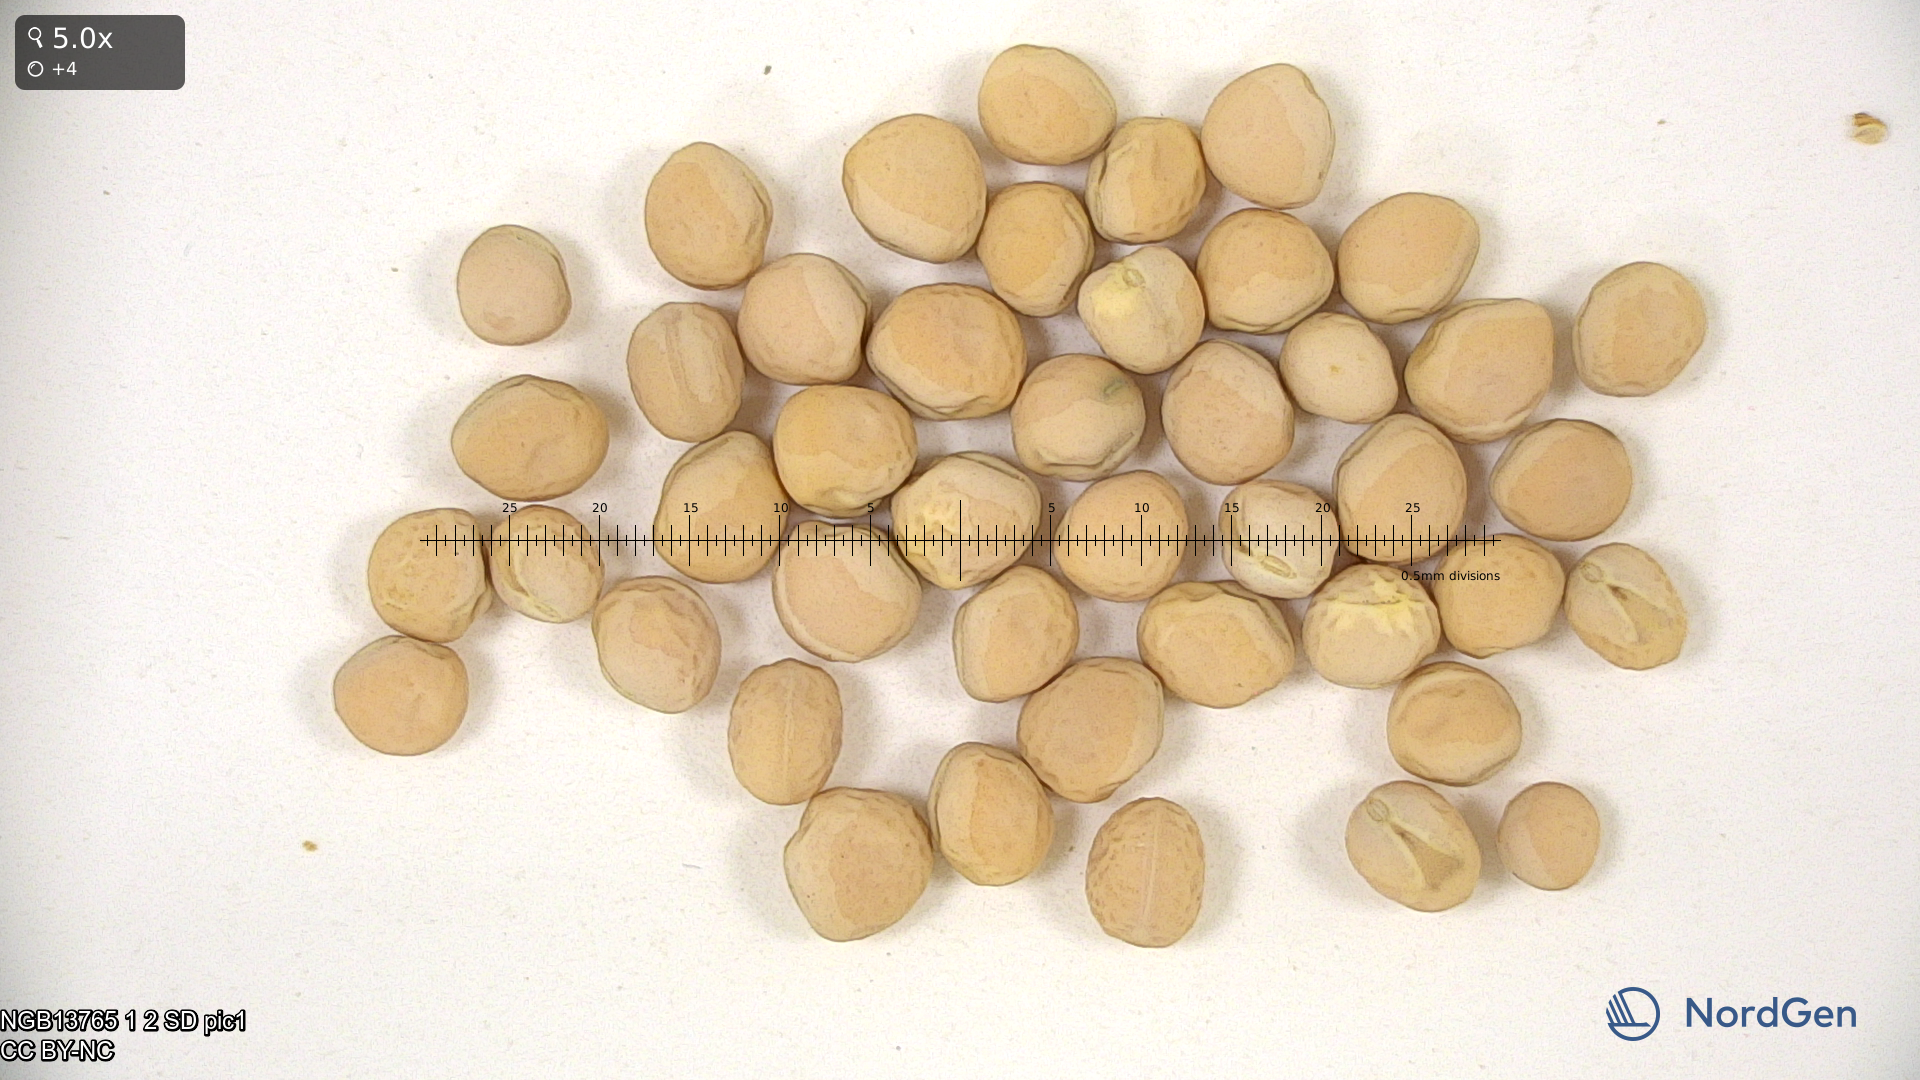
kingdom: Plantae
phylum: Tracheophyta
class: Magnoliopsida
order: Fabales
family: Fabaceae
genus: Lathyrus
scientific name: Lathyrus oleraceus
